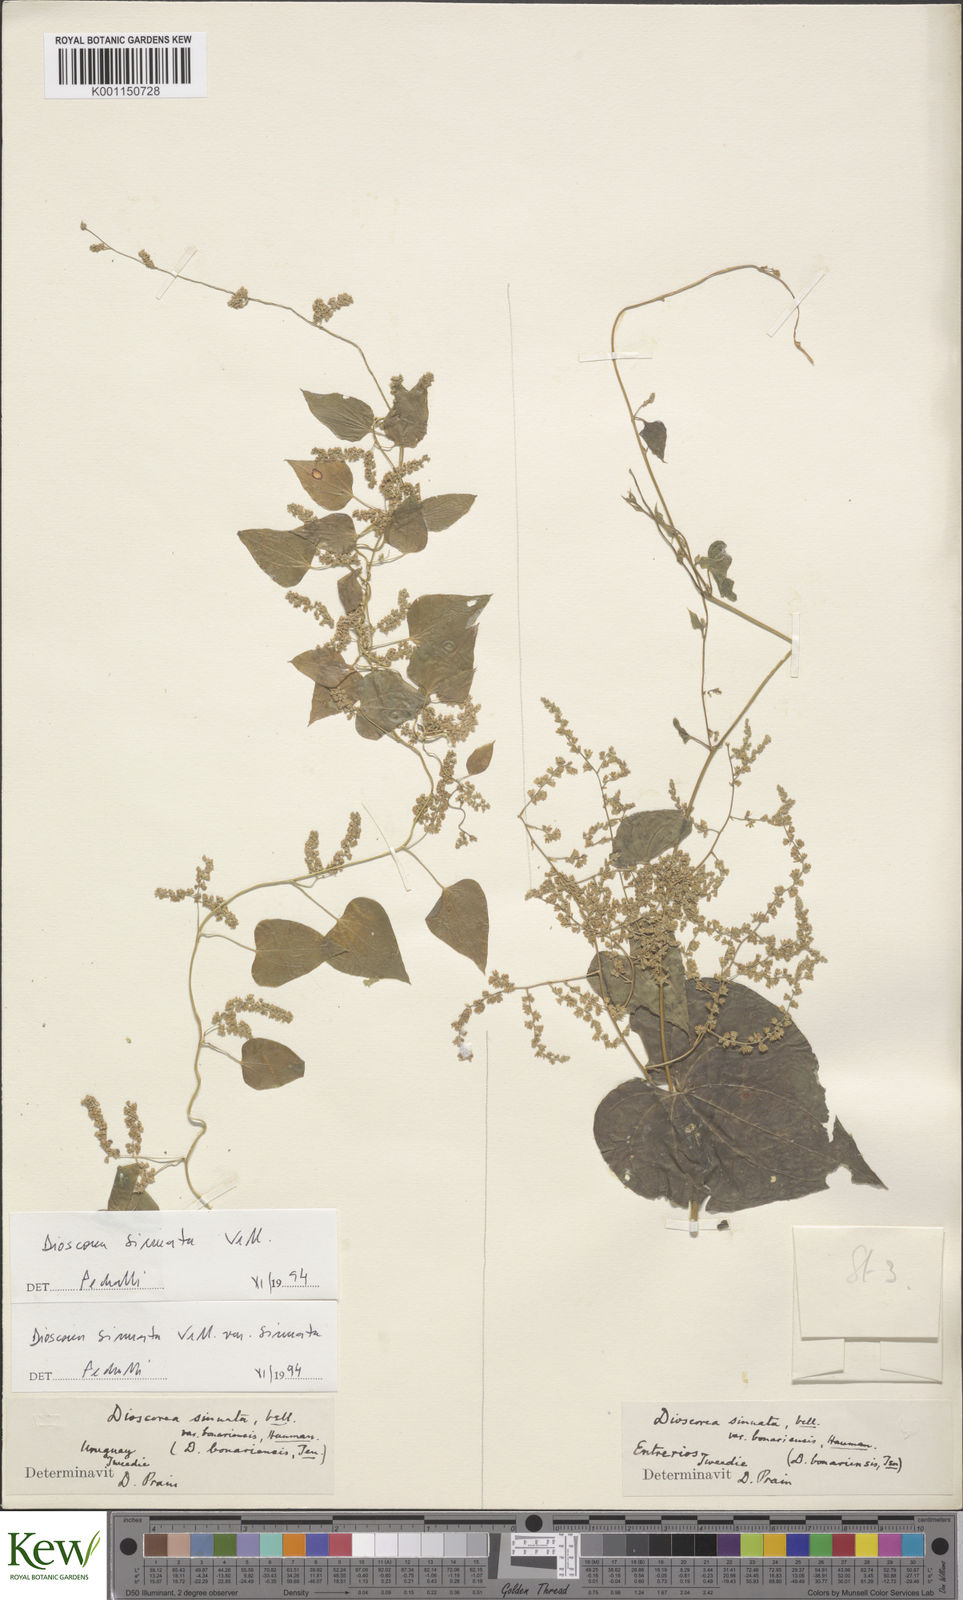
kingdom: Plantae
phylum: Tracheophyta
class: Liliopsida
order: Dioscoreales
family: Dioscoreaceae
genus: Dioscorea
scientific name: Dioscorea sinuata
